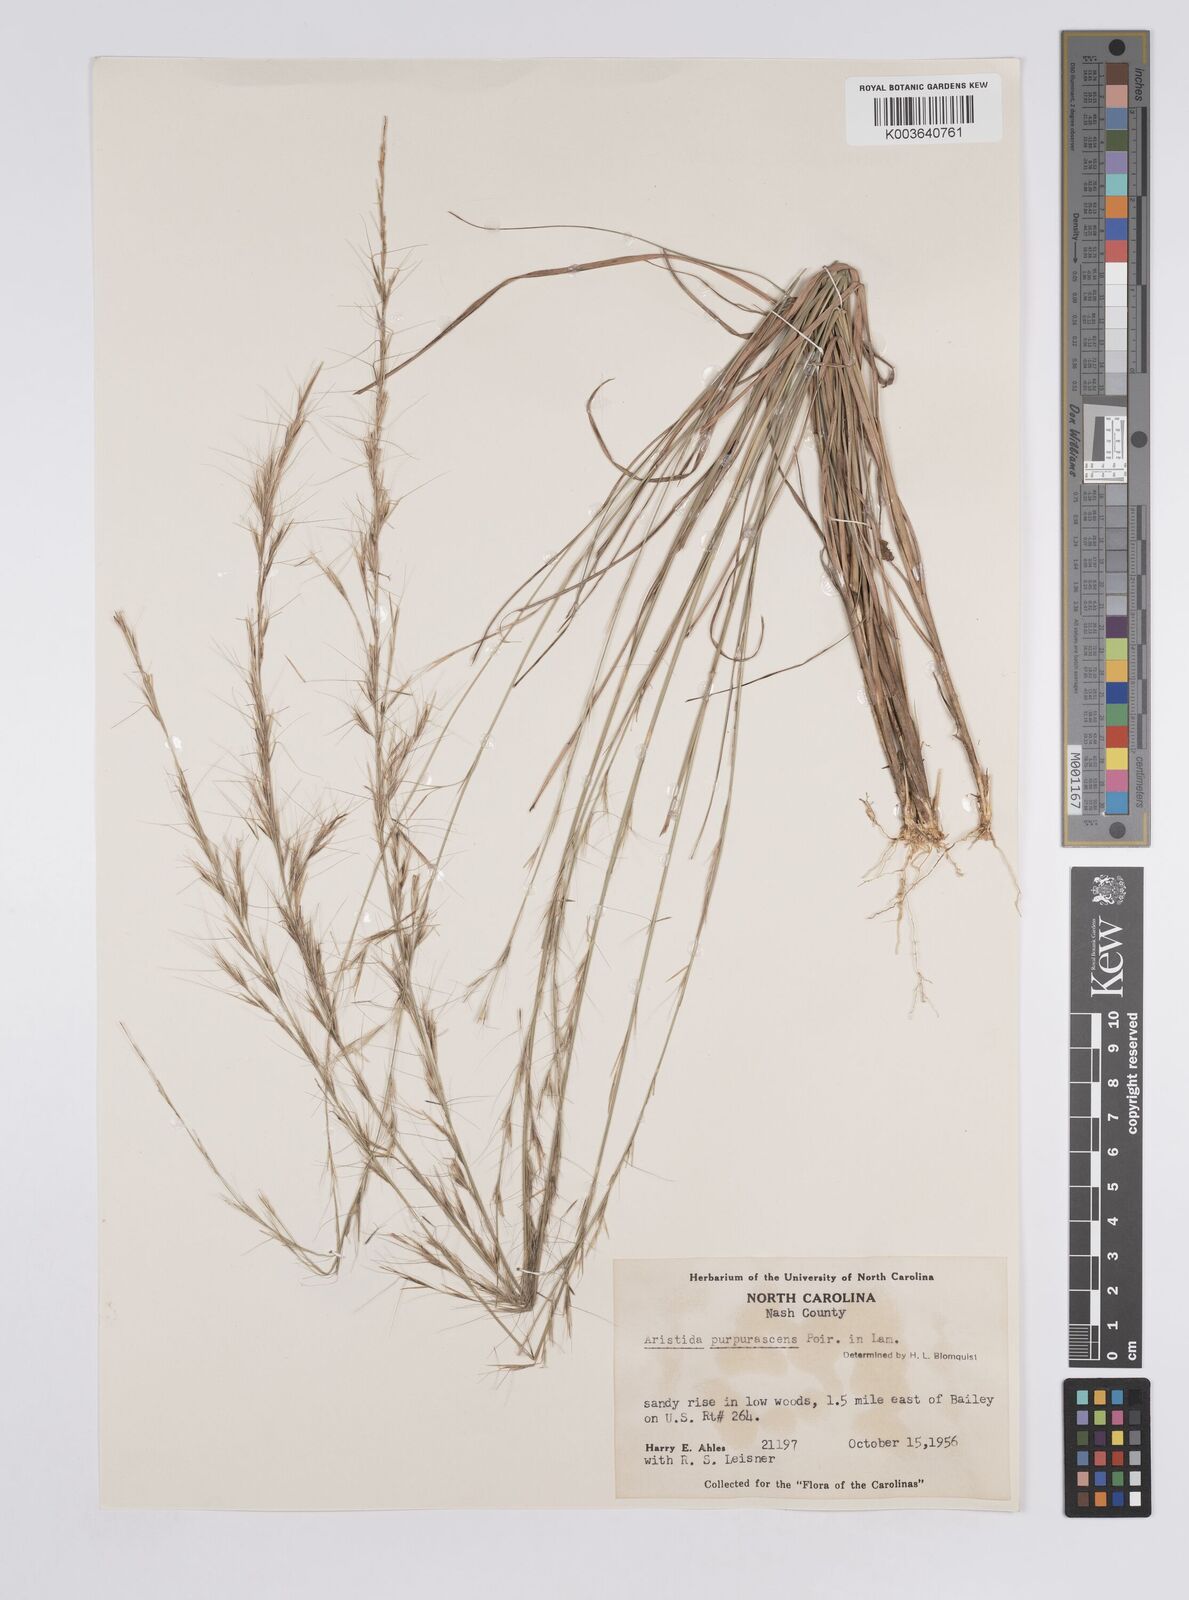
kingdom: Plantae
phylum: Tracheophyta
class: Liliopsida
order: Poales
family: Poaceae
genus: Aristida
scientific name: Aristida adscensionis
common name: Sixweeks threeawn
